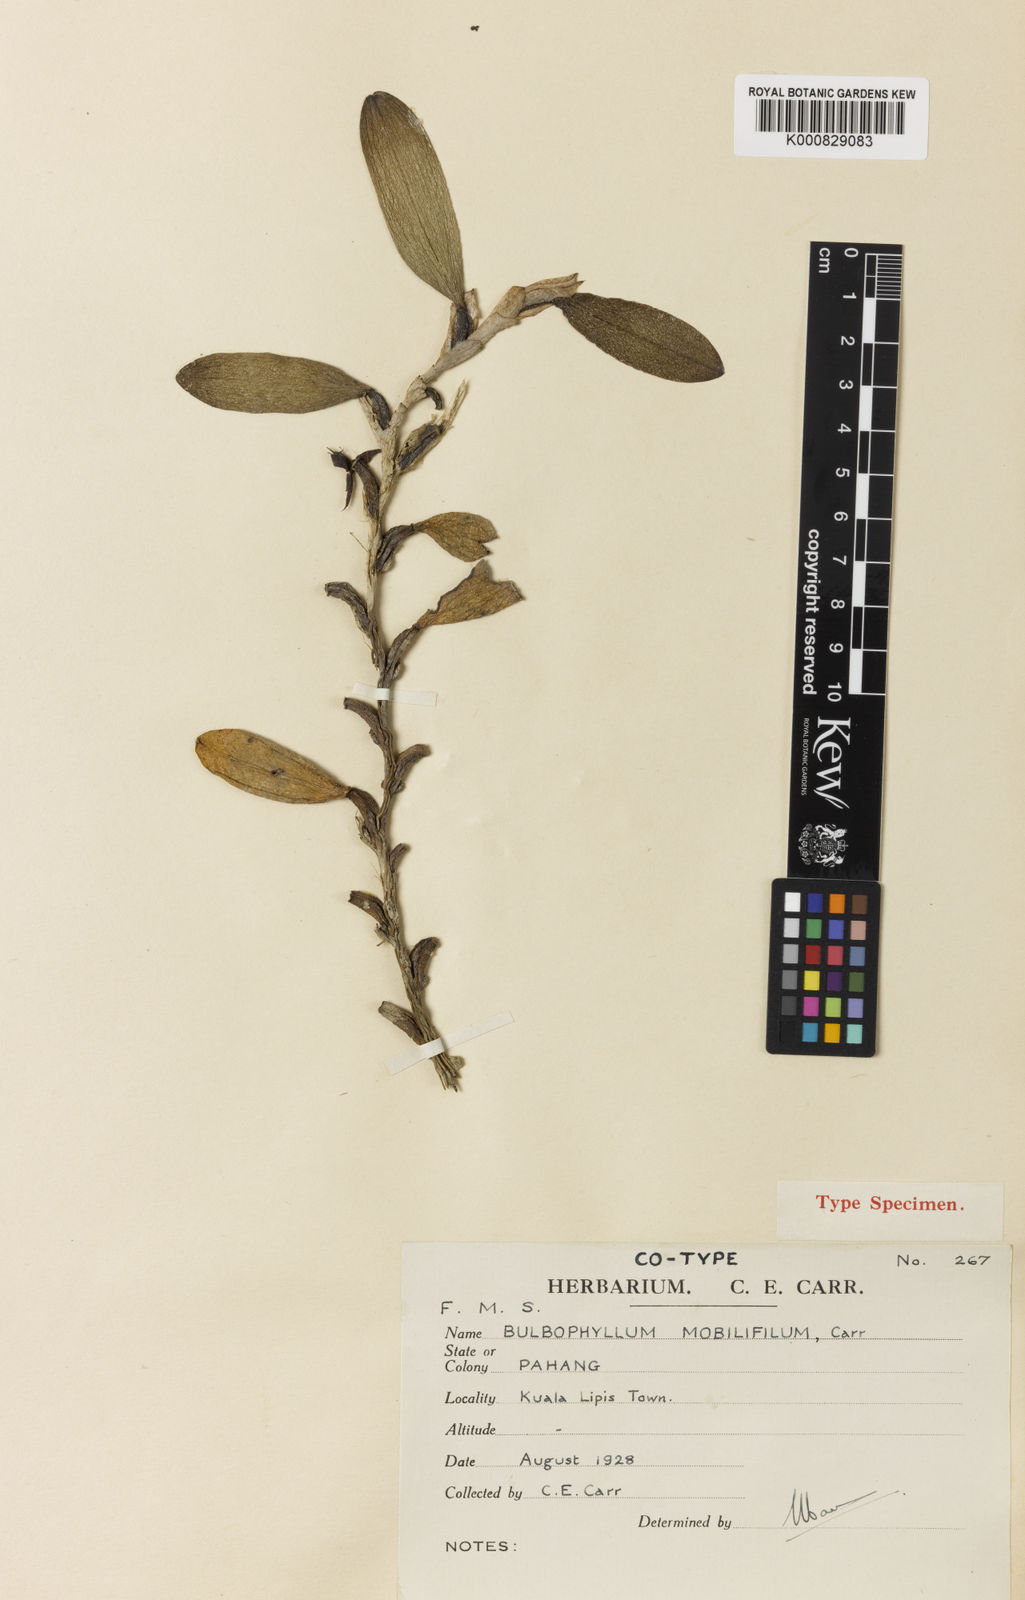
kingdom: Plantae
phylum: Tracheophyta
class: Liliopsida
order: Asparagales
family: Orchidaceae
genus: Bulbophyllum
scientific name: Bulbophyllum mobilifilum
